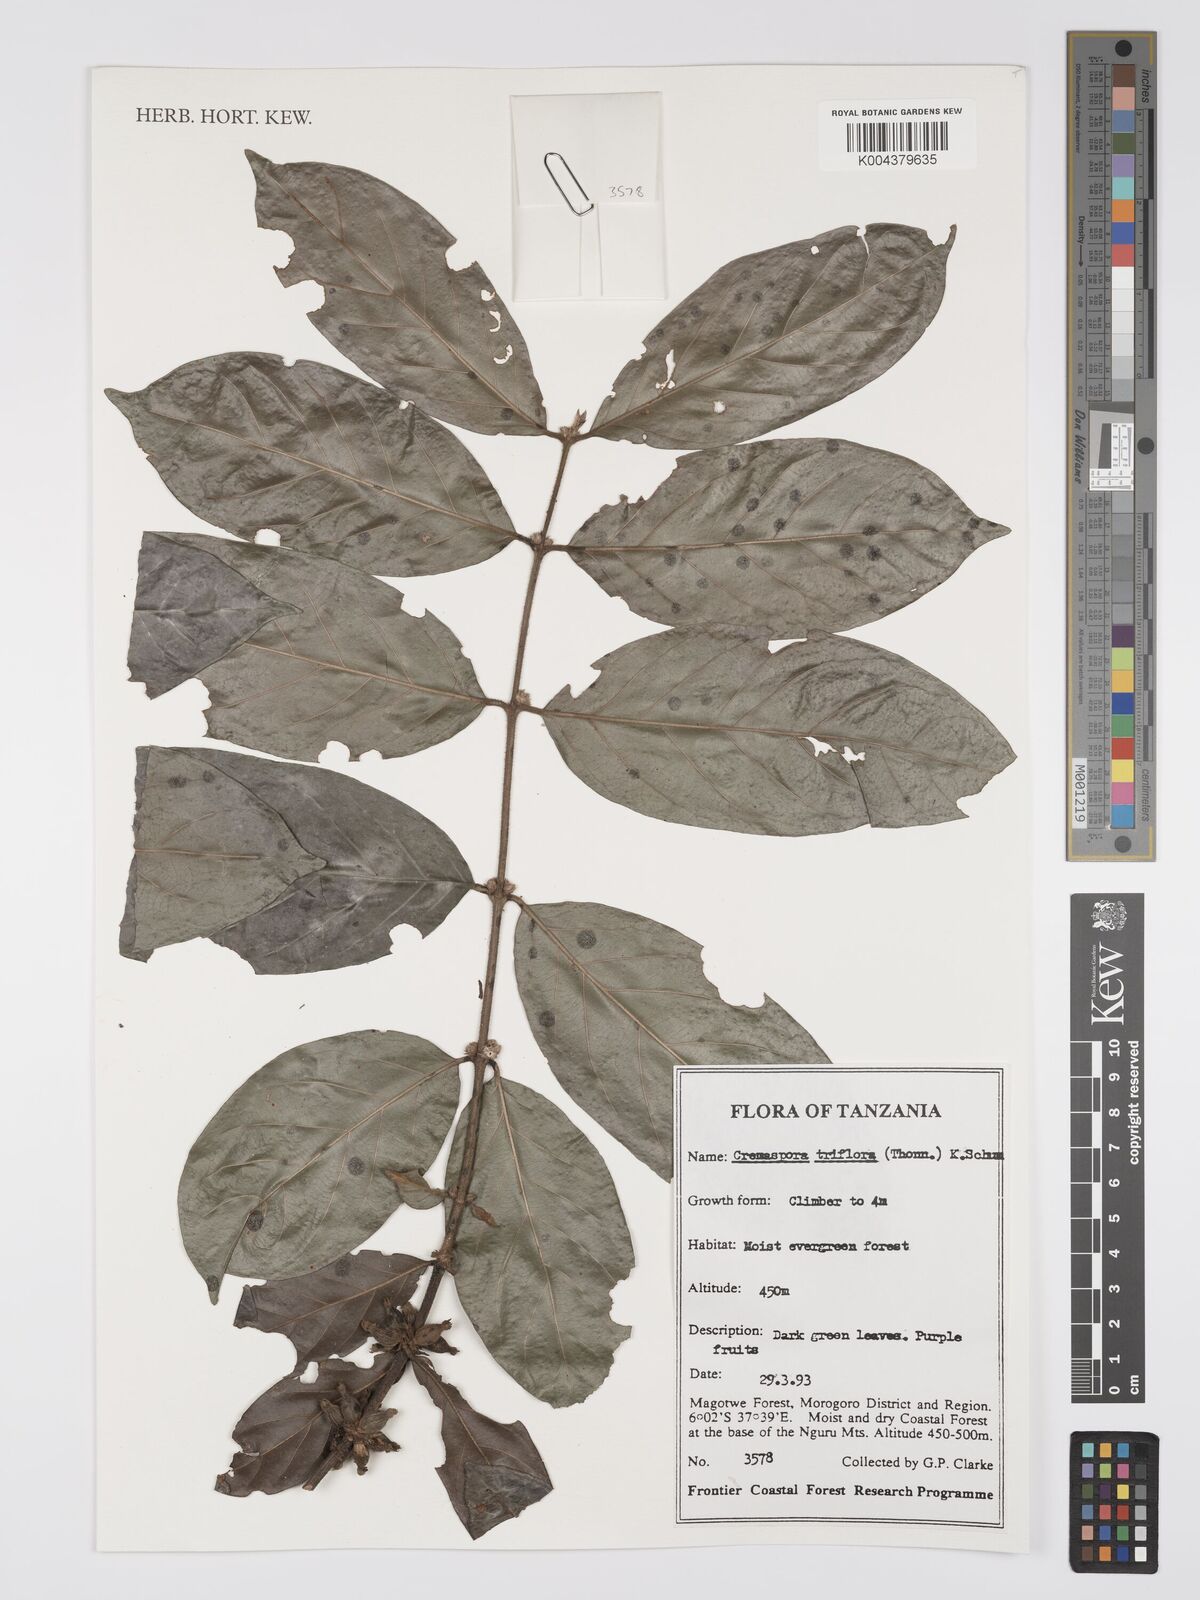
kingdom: Plantae
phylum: Tracheophyta
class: Magnoliopsida
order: Gentianales
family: Rubiaceae
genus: Cremaspora
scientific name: Cremaspora triflora
